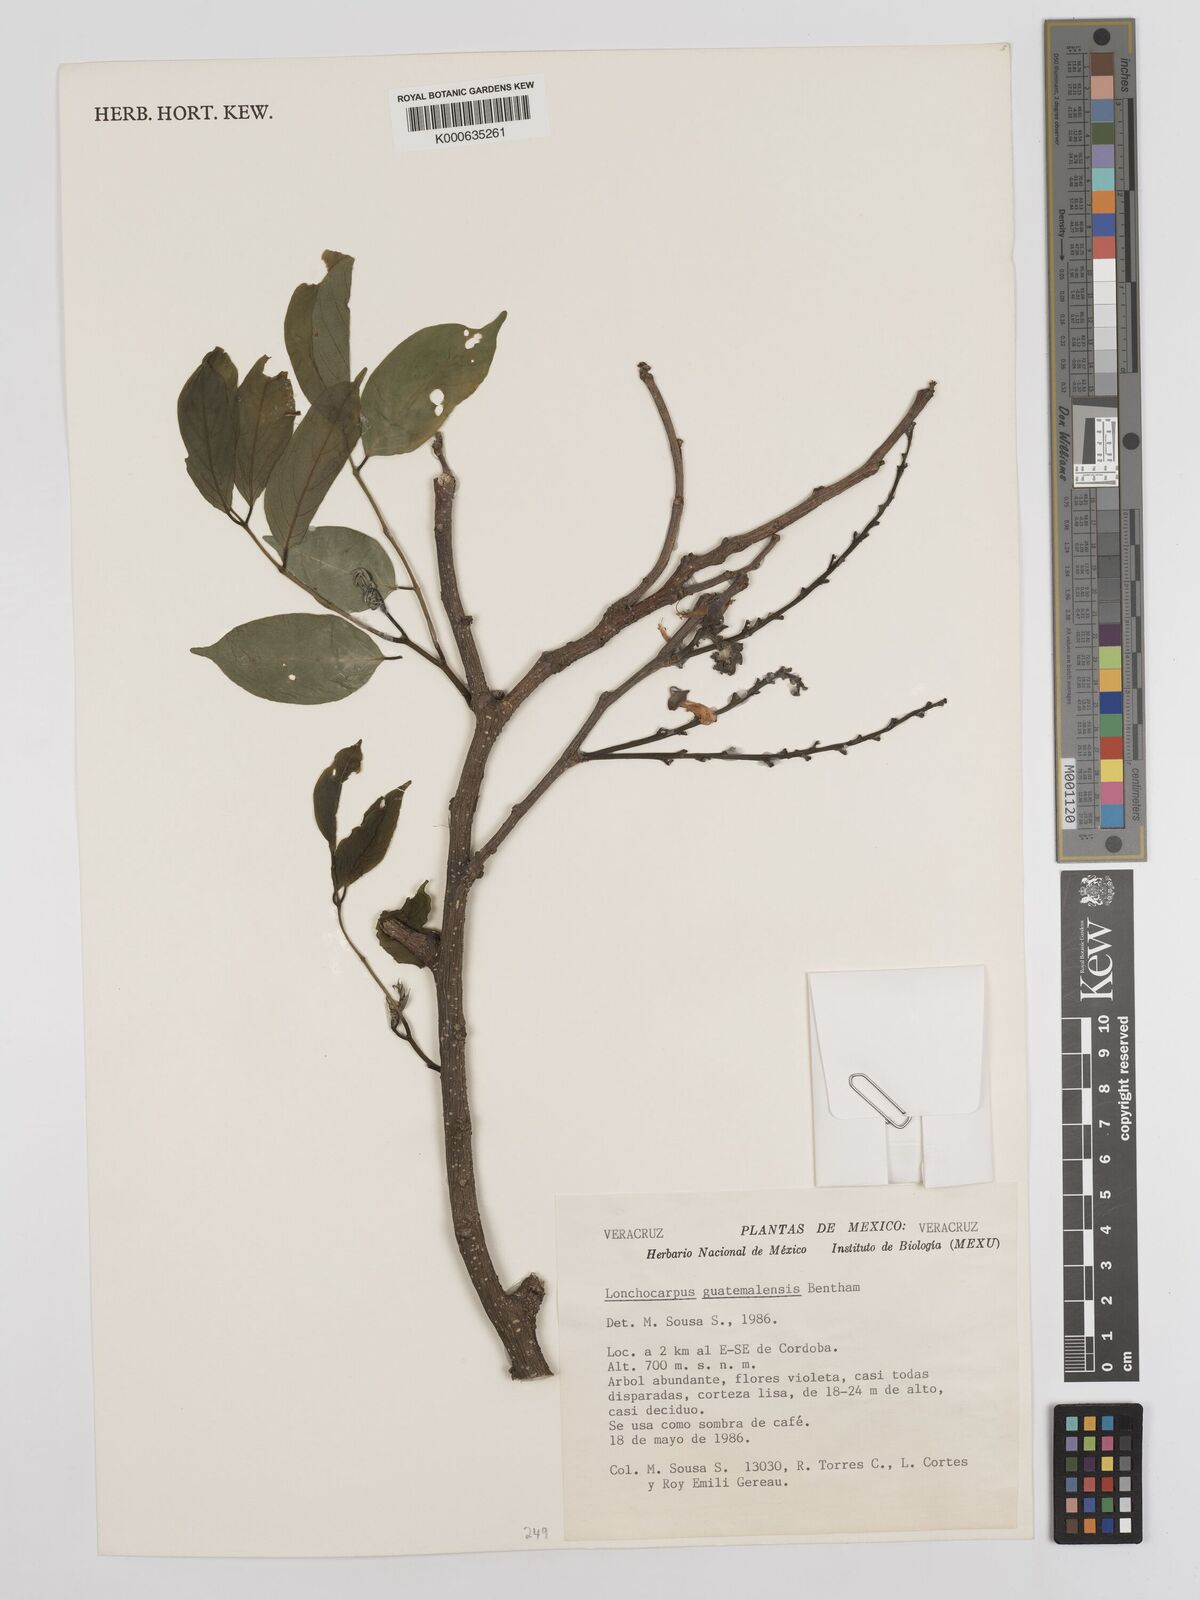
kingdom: Plantae
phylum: Tracheophyta
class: Magnoliopsida
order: Fabales
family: Fabaceae
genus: Lonchocarpus
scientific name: Lonchocarpus guatemalensis
